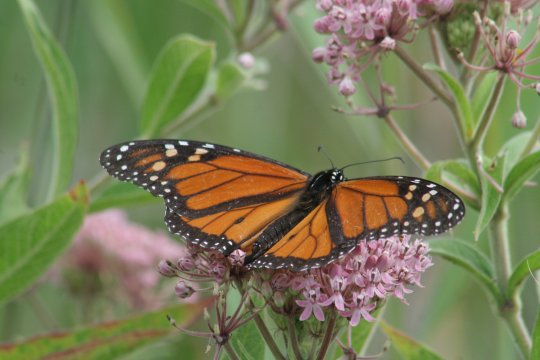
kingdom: Animalia
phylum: Arthropoda
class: Insecta
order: Lepidoptera
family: Nymphalidae
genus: Danaus
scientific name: Danaus plexippus
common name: Monarch
